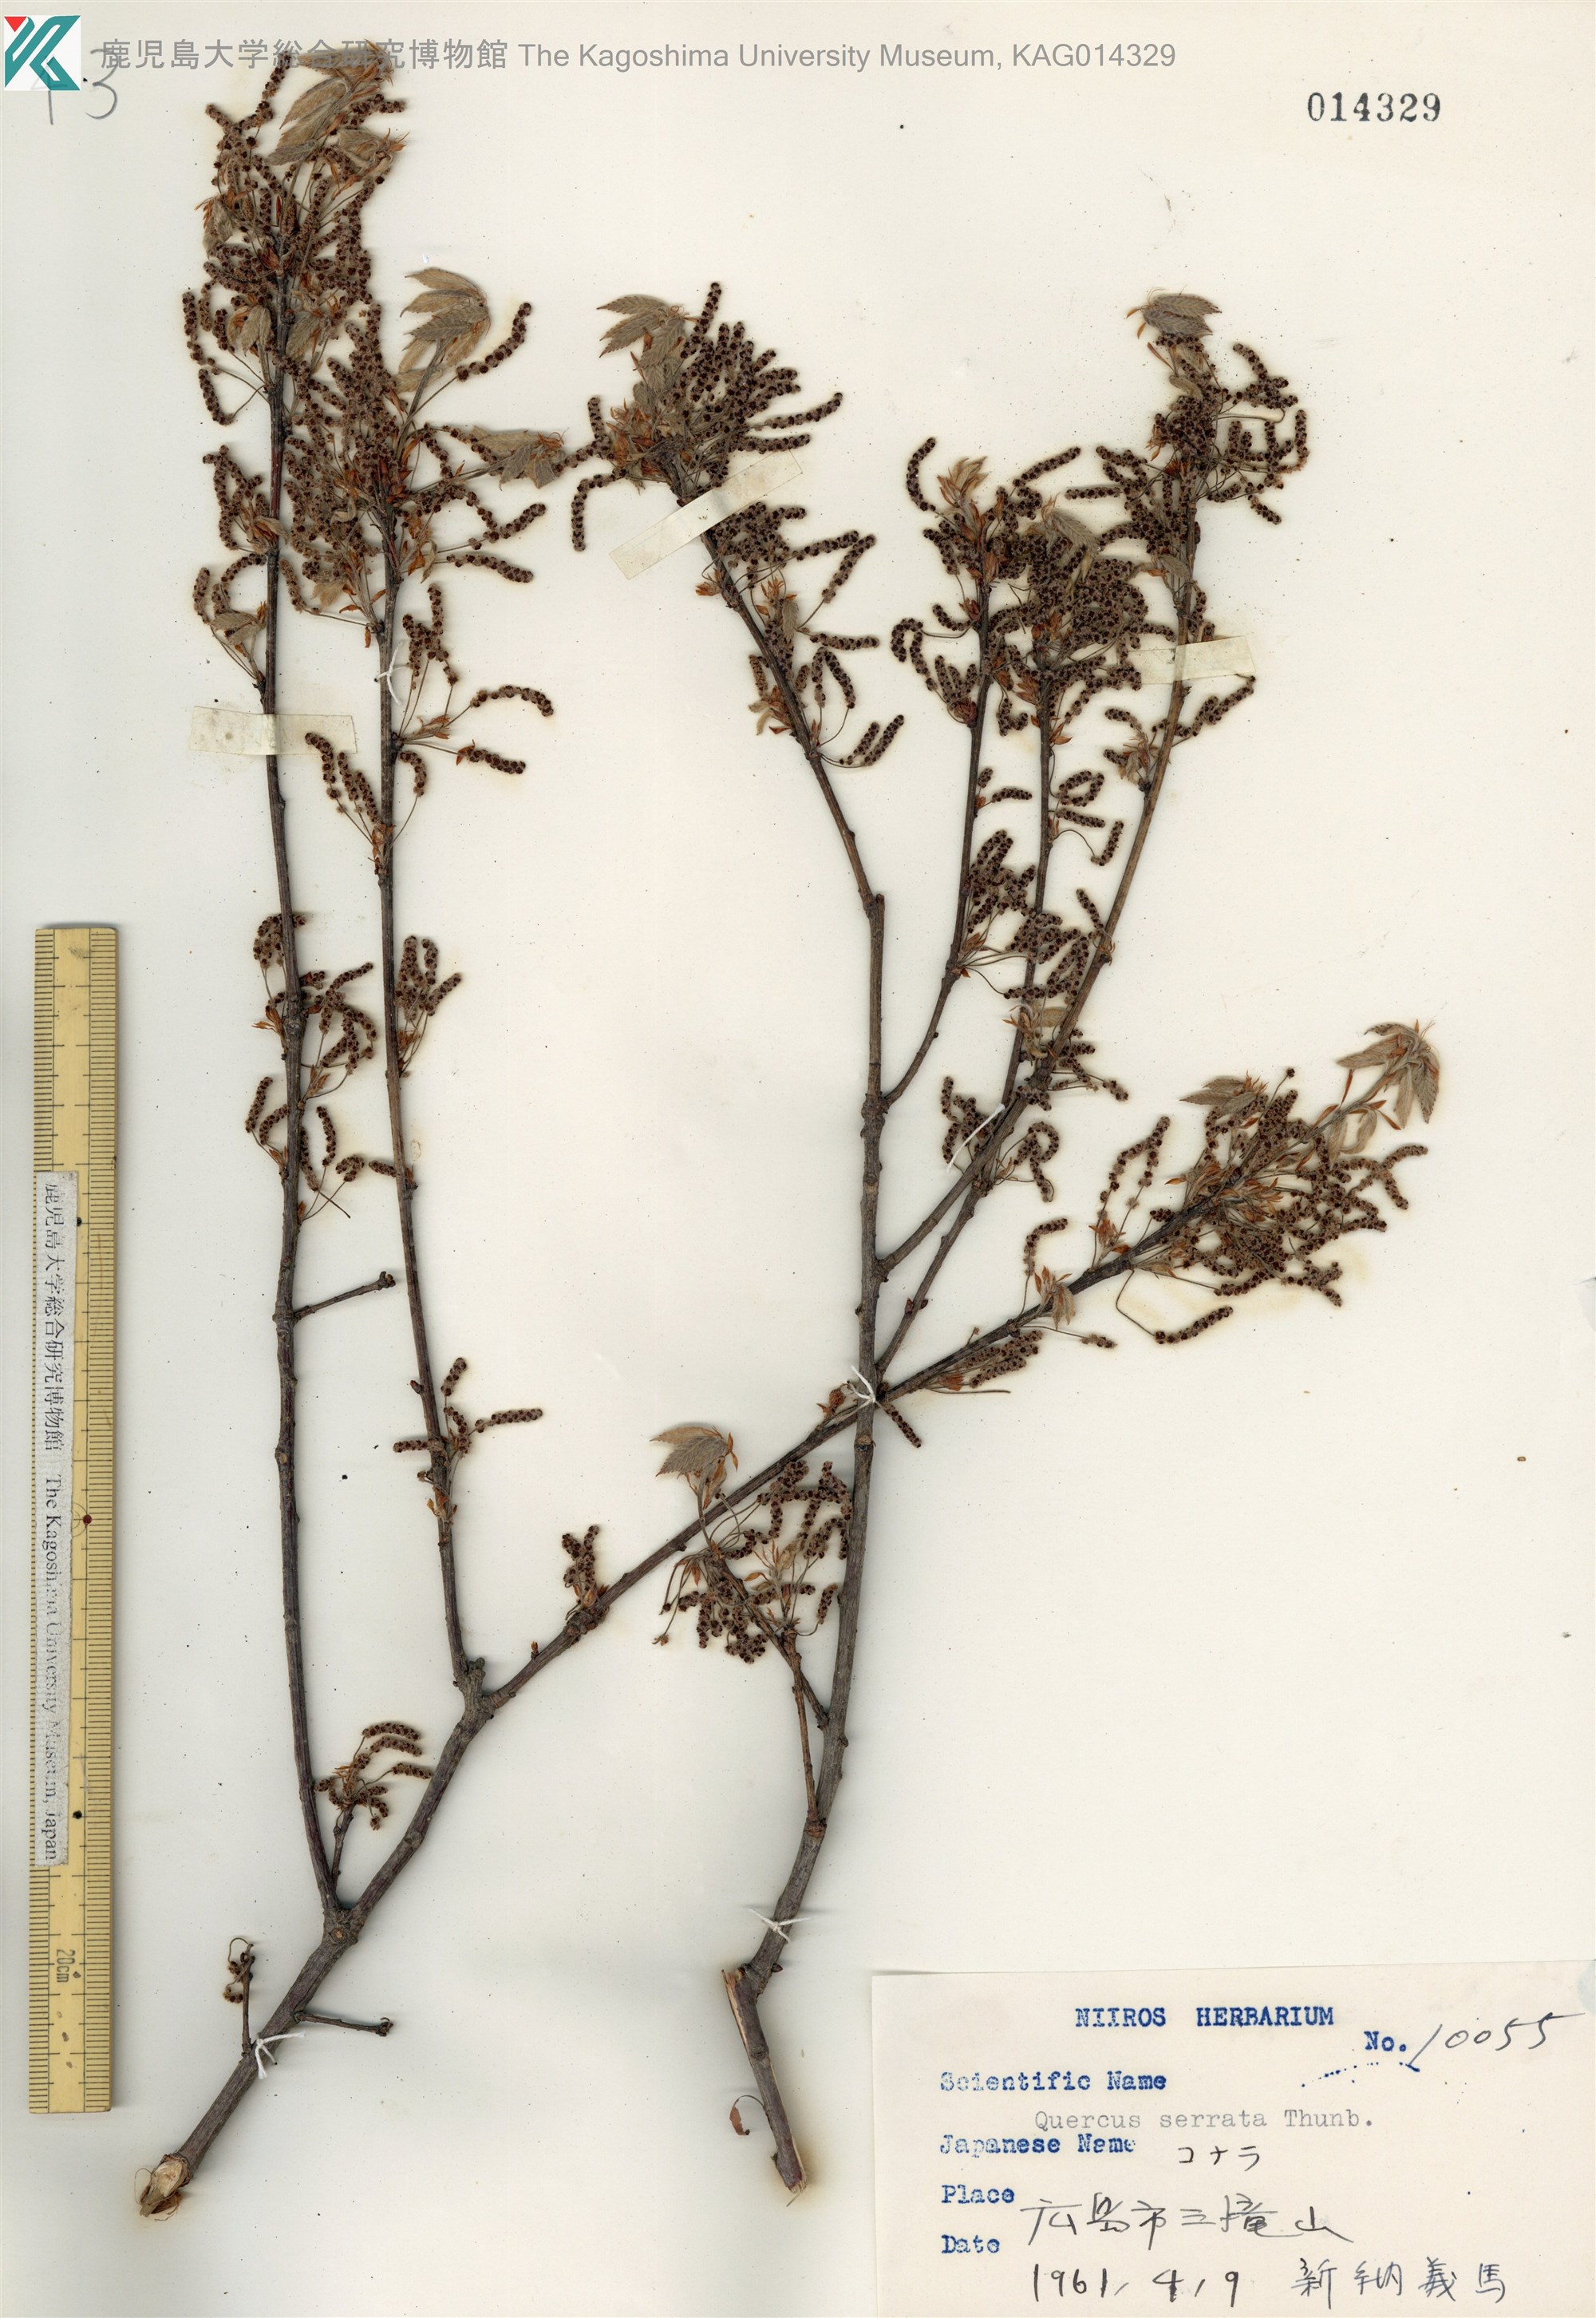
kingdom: Plantae
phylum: Tracheophyta
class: Magnoliopsida
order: Fagales
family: Fagaceae
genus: Quercus
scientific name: Quercus serrata
